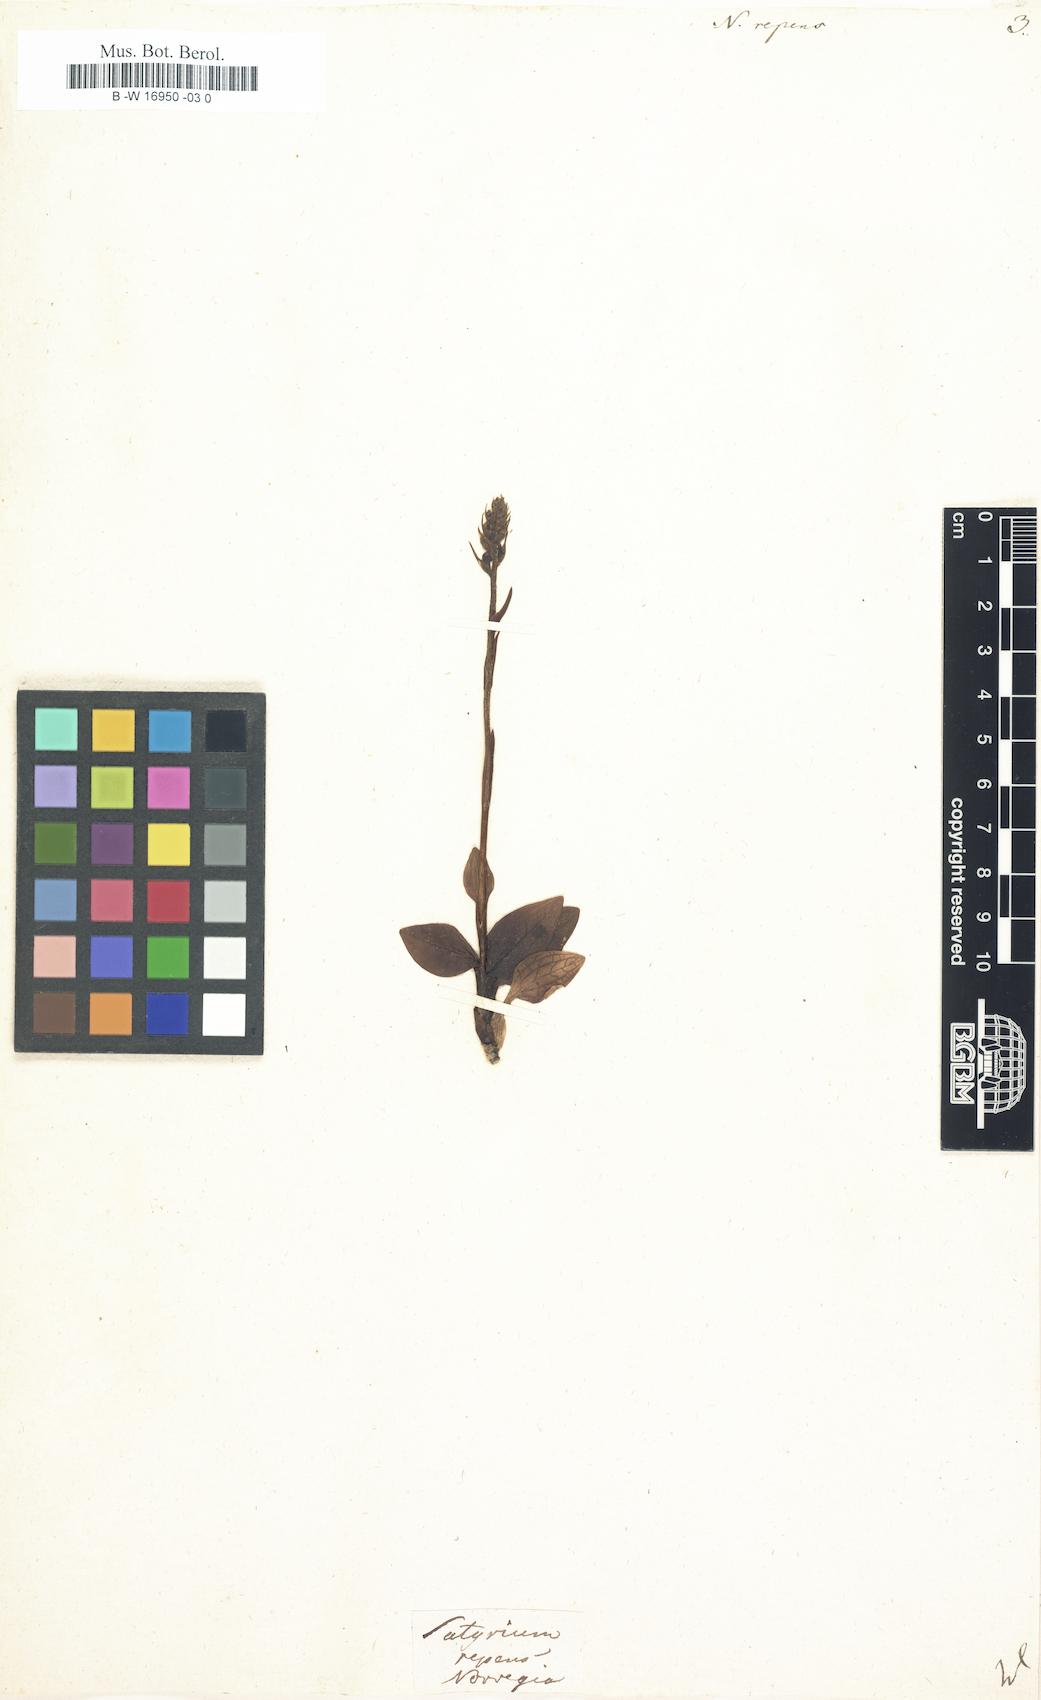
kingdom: Plantae
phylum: Tracheophyta
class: Liliopsida
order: Asparagales
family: Orchidaceae
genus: Goodyera
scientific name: Goodyera
